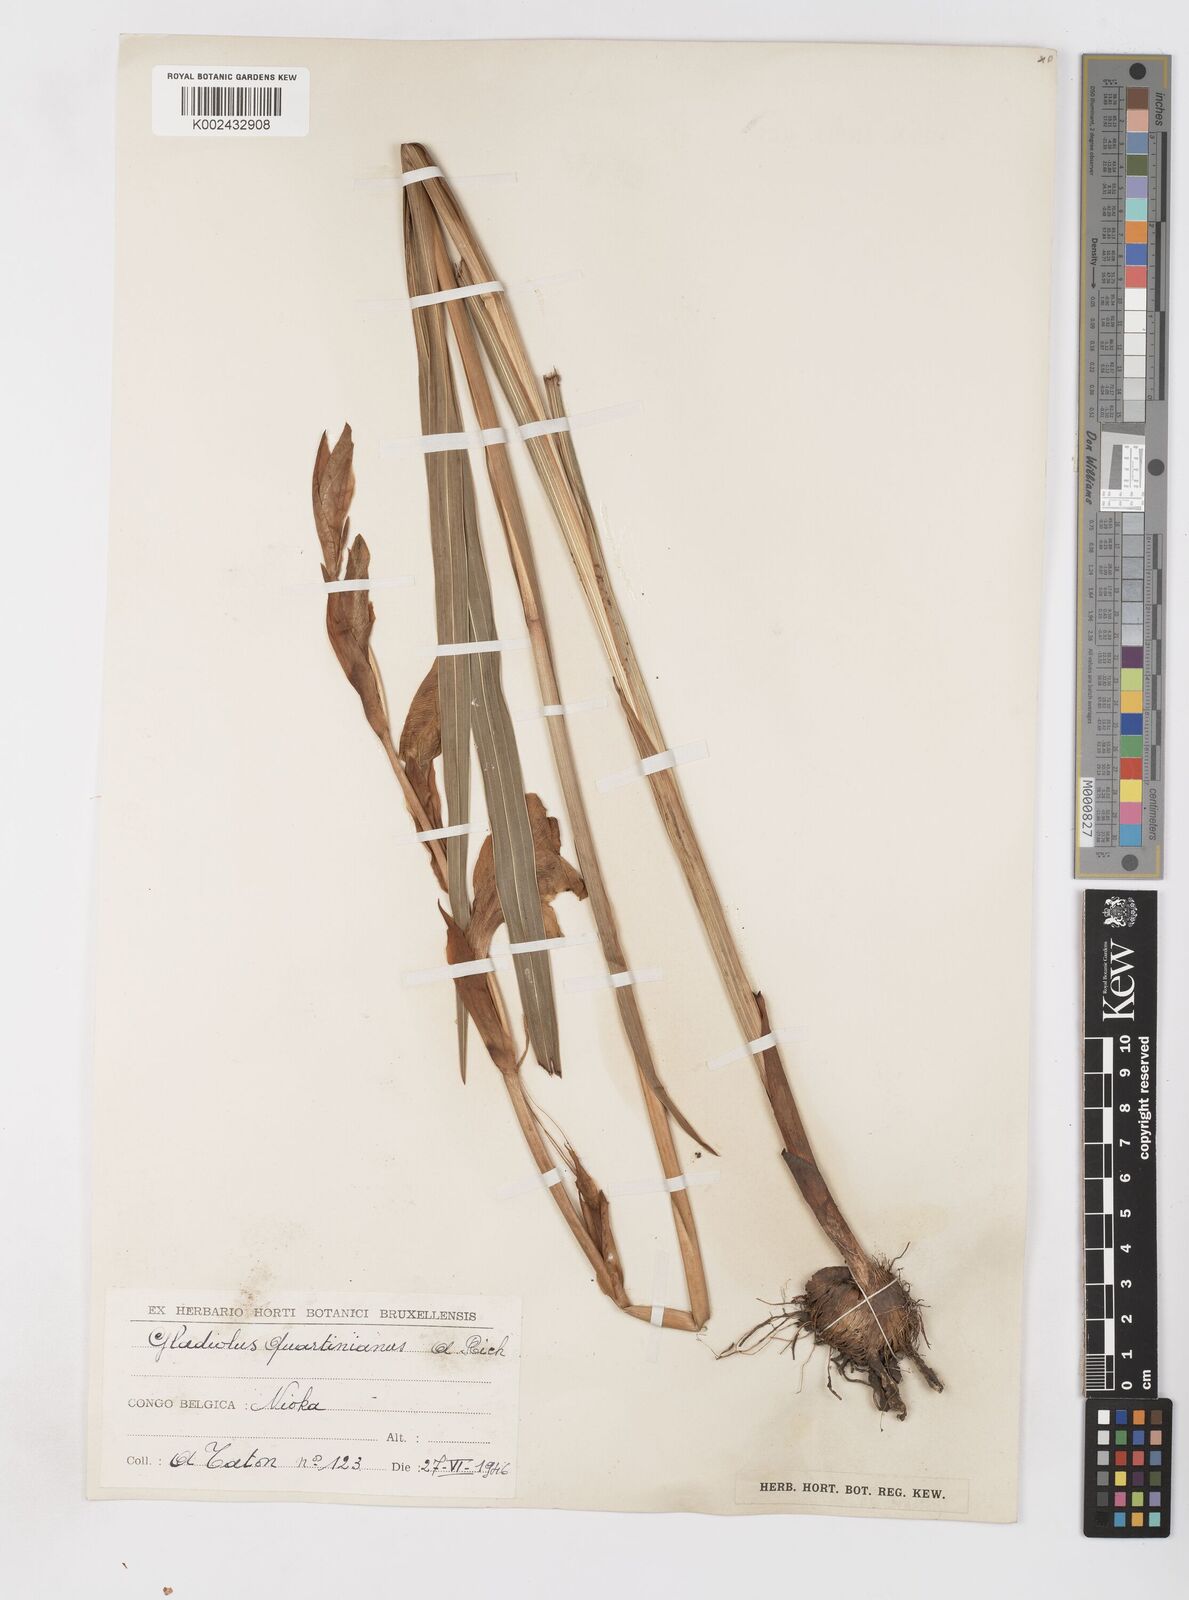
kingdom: Plantae
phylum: Tracheophyta
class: Liliopsida
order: Asparagales
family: Iridaceae
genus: Gladiolus
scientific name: Gladiolus dalenii
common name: Cornflag
